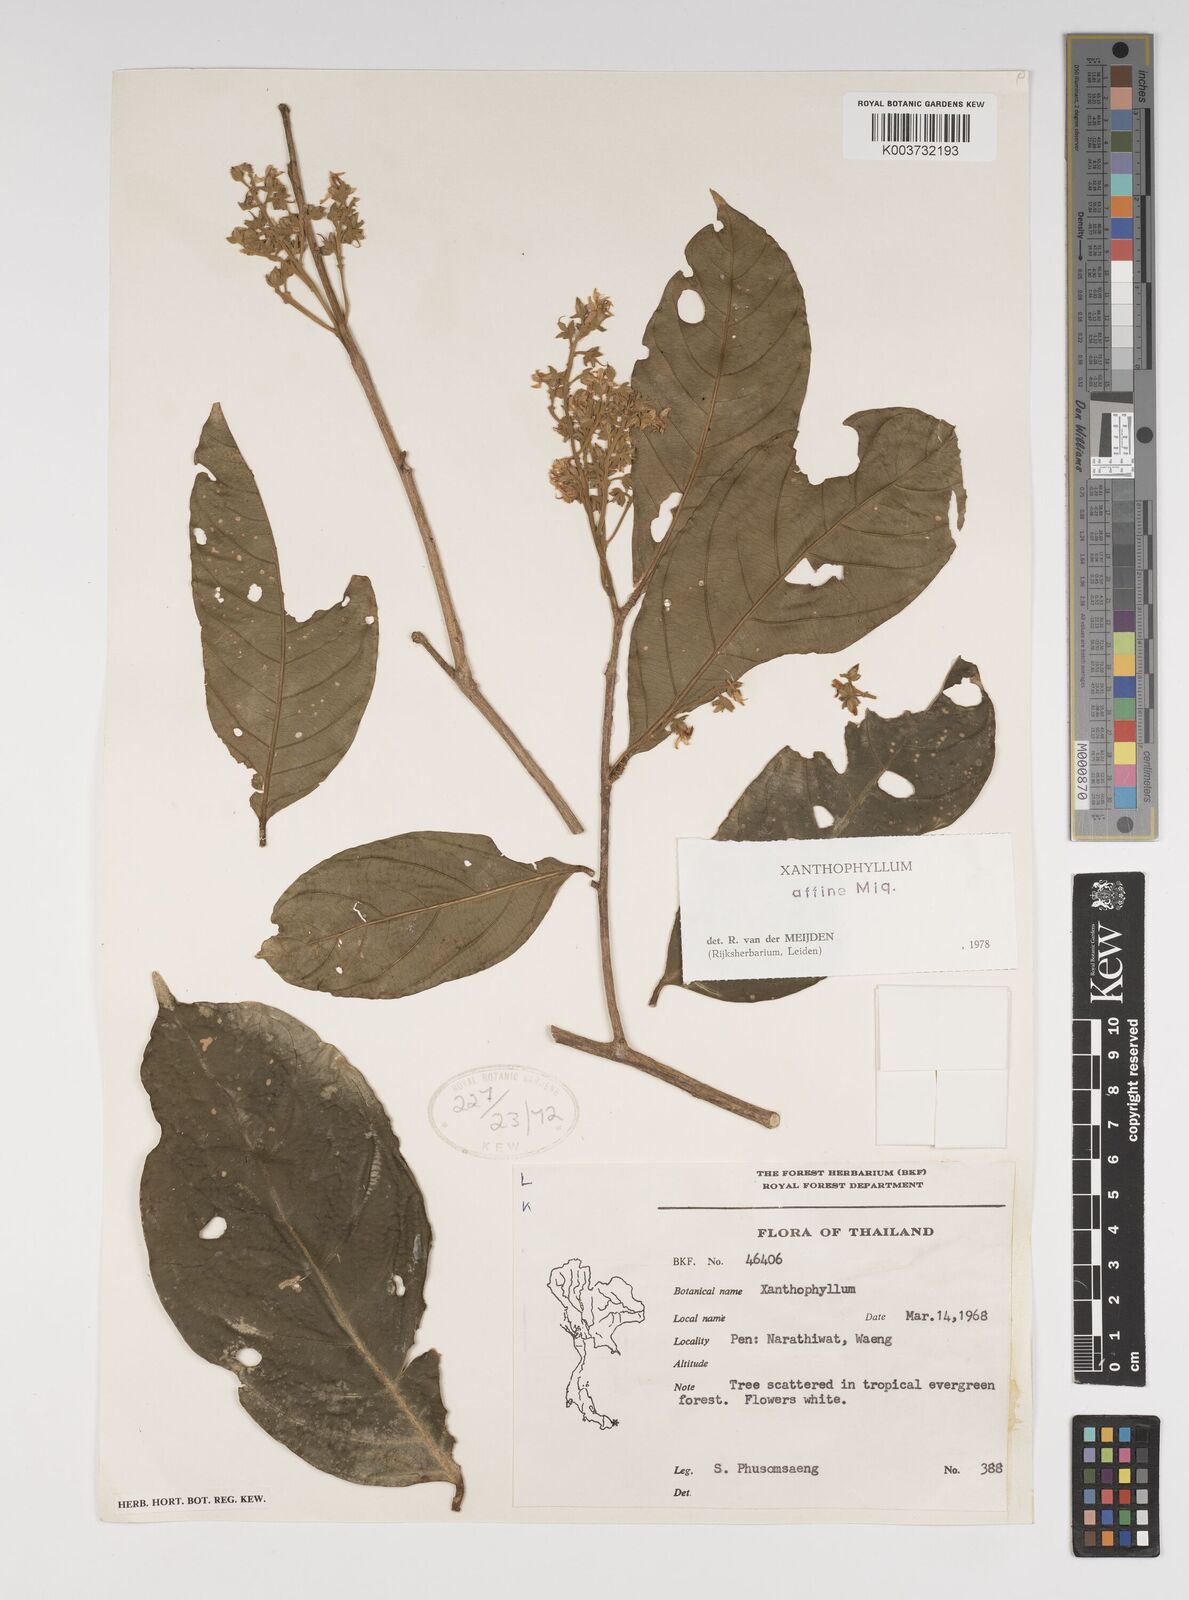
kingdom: Plantae
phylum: Tracheophyta
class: Magnoliopsida
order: Fabales
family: Polygalaceae
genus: Xanthophyllum
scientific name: Xanthophyllum flavescens
